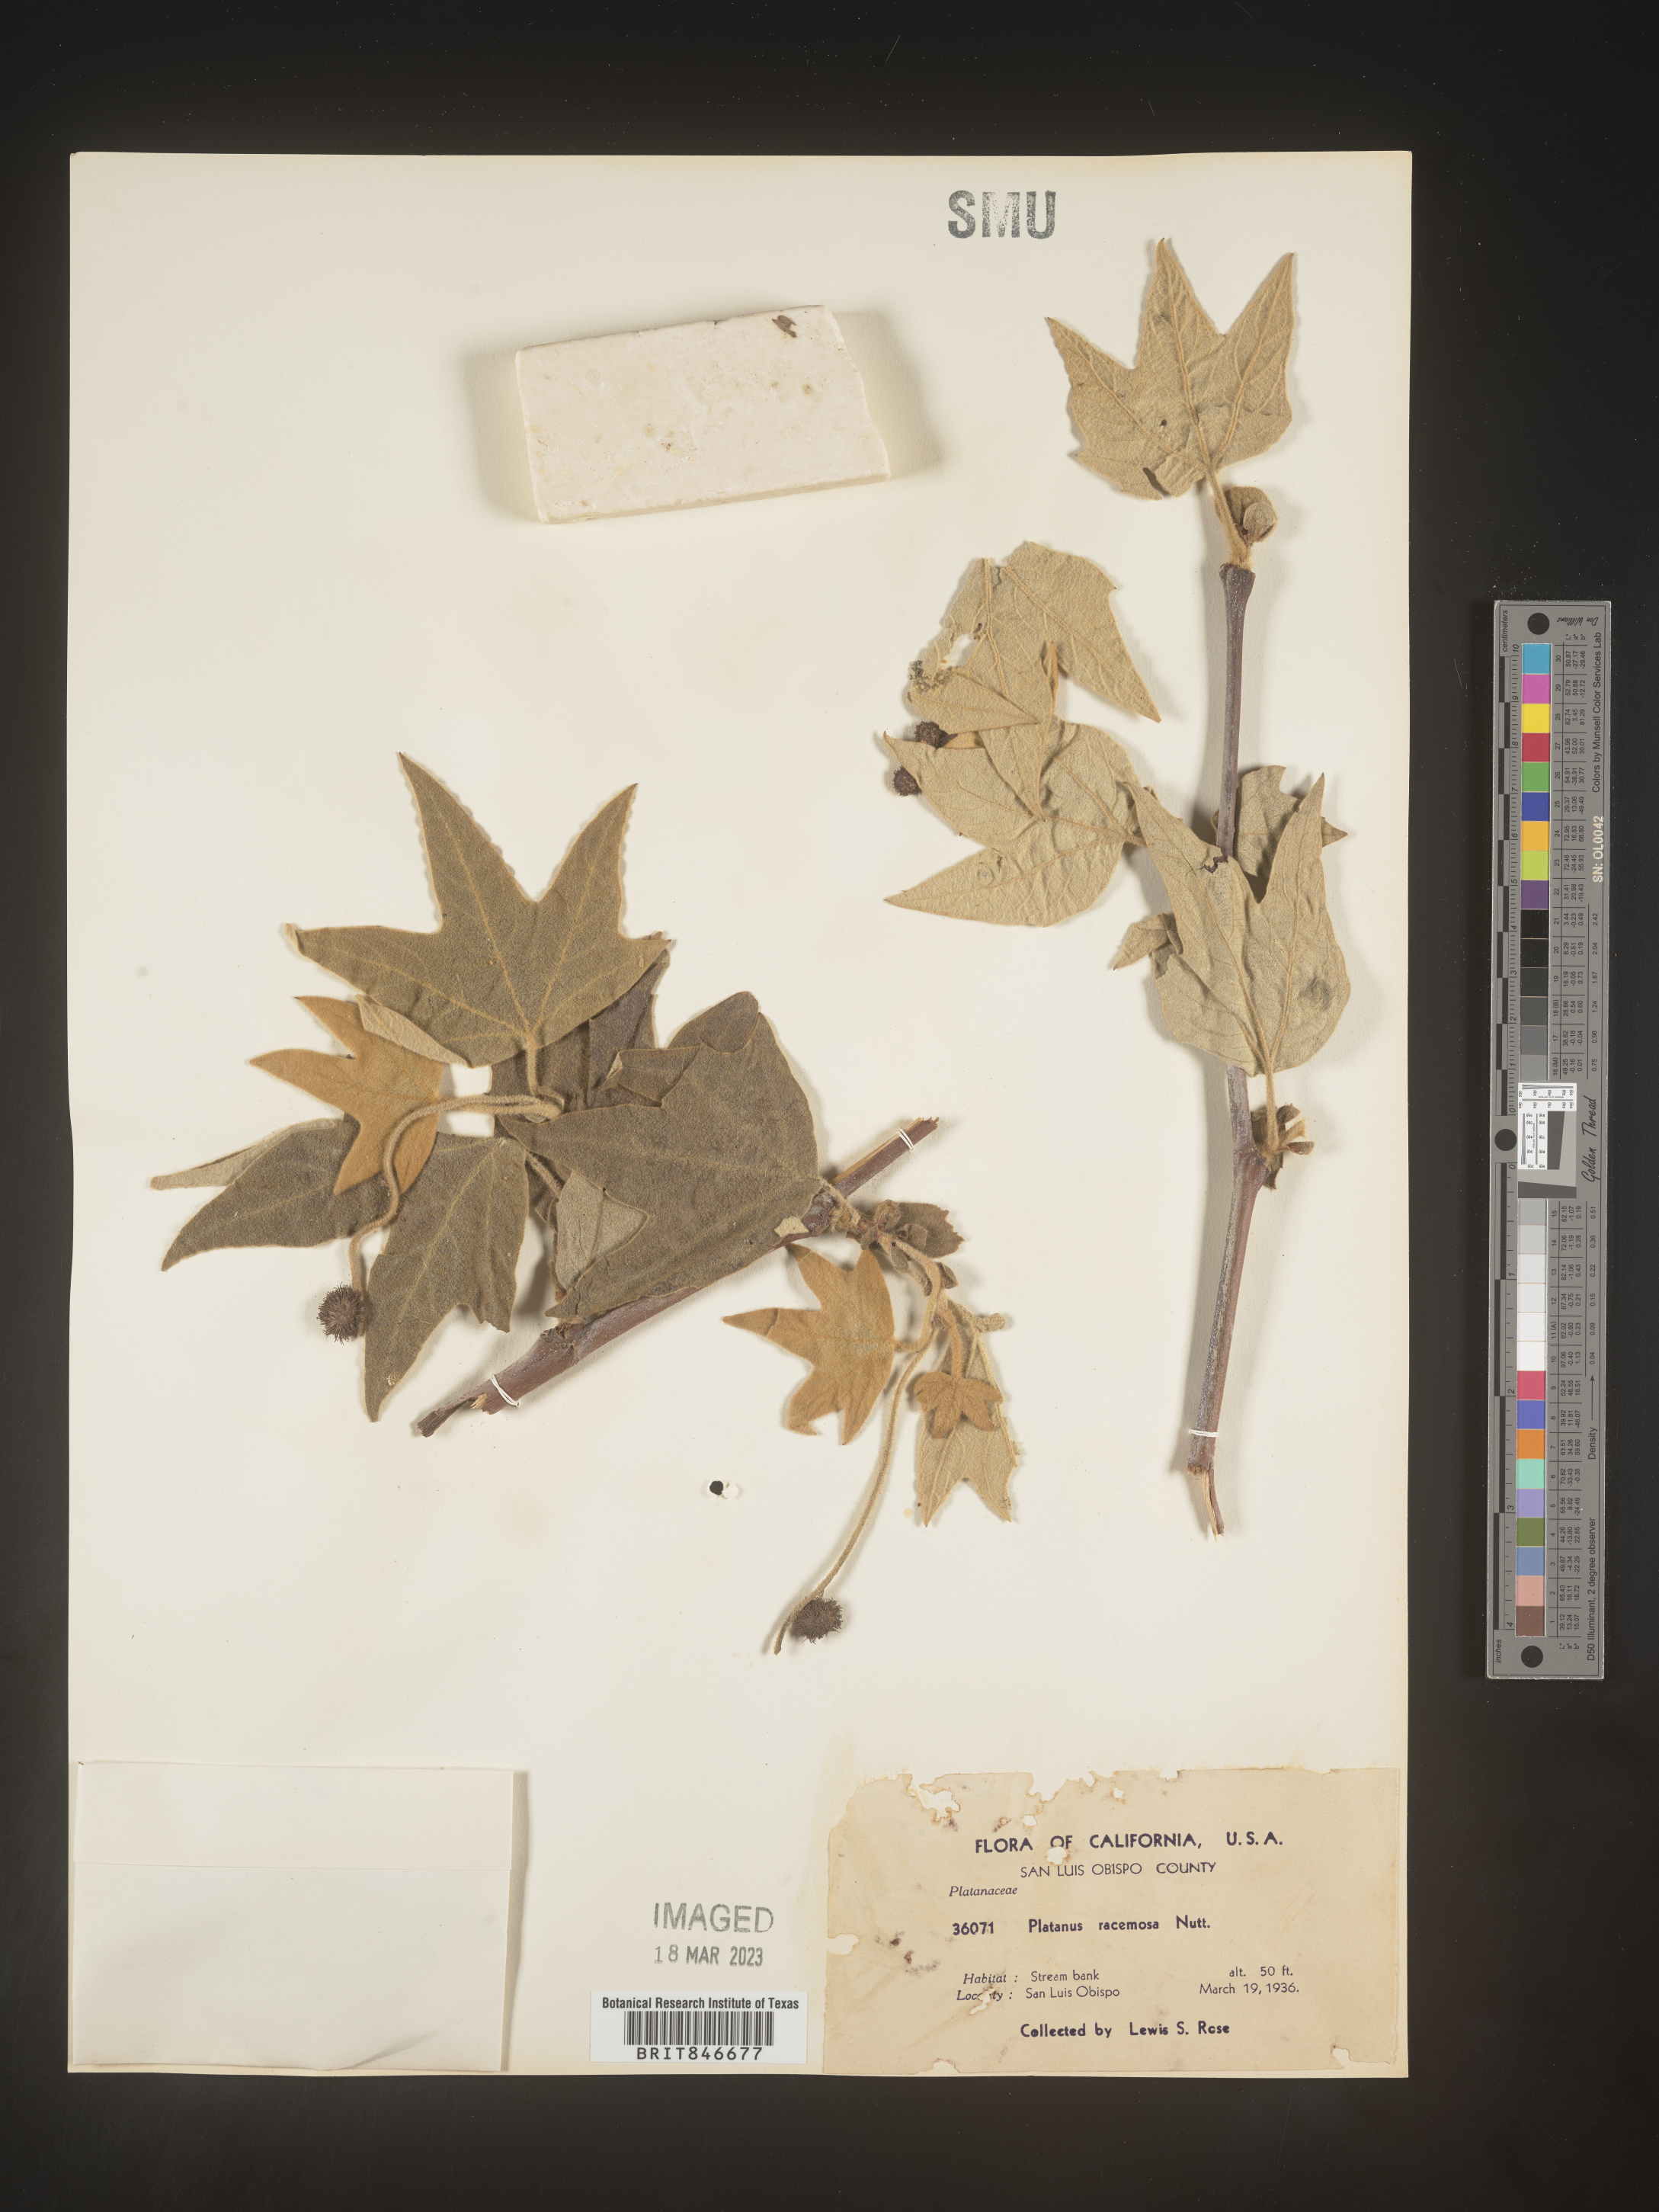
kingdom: Plantae
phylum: Tracheophyta
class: Magnoliopsida
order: Proteales
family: Platanaceae
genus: Platanus
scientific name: Platanus
